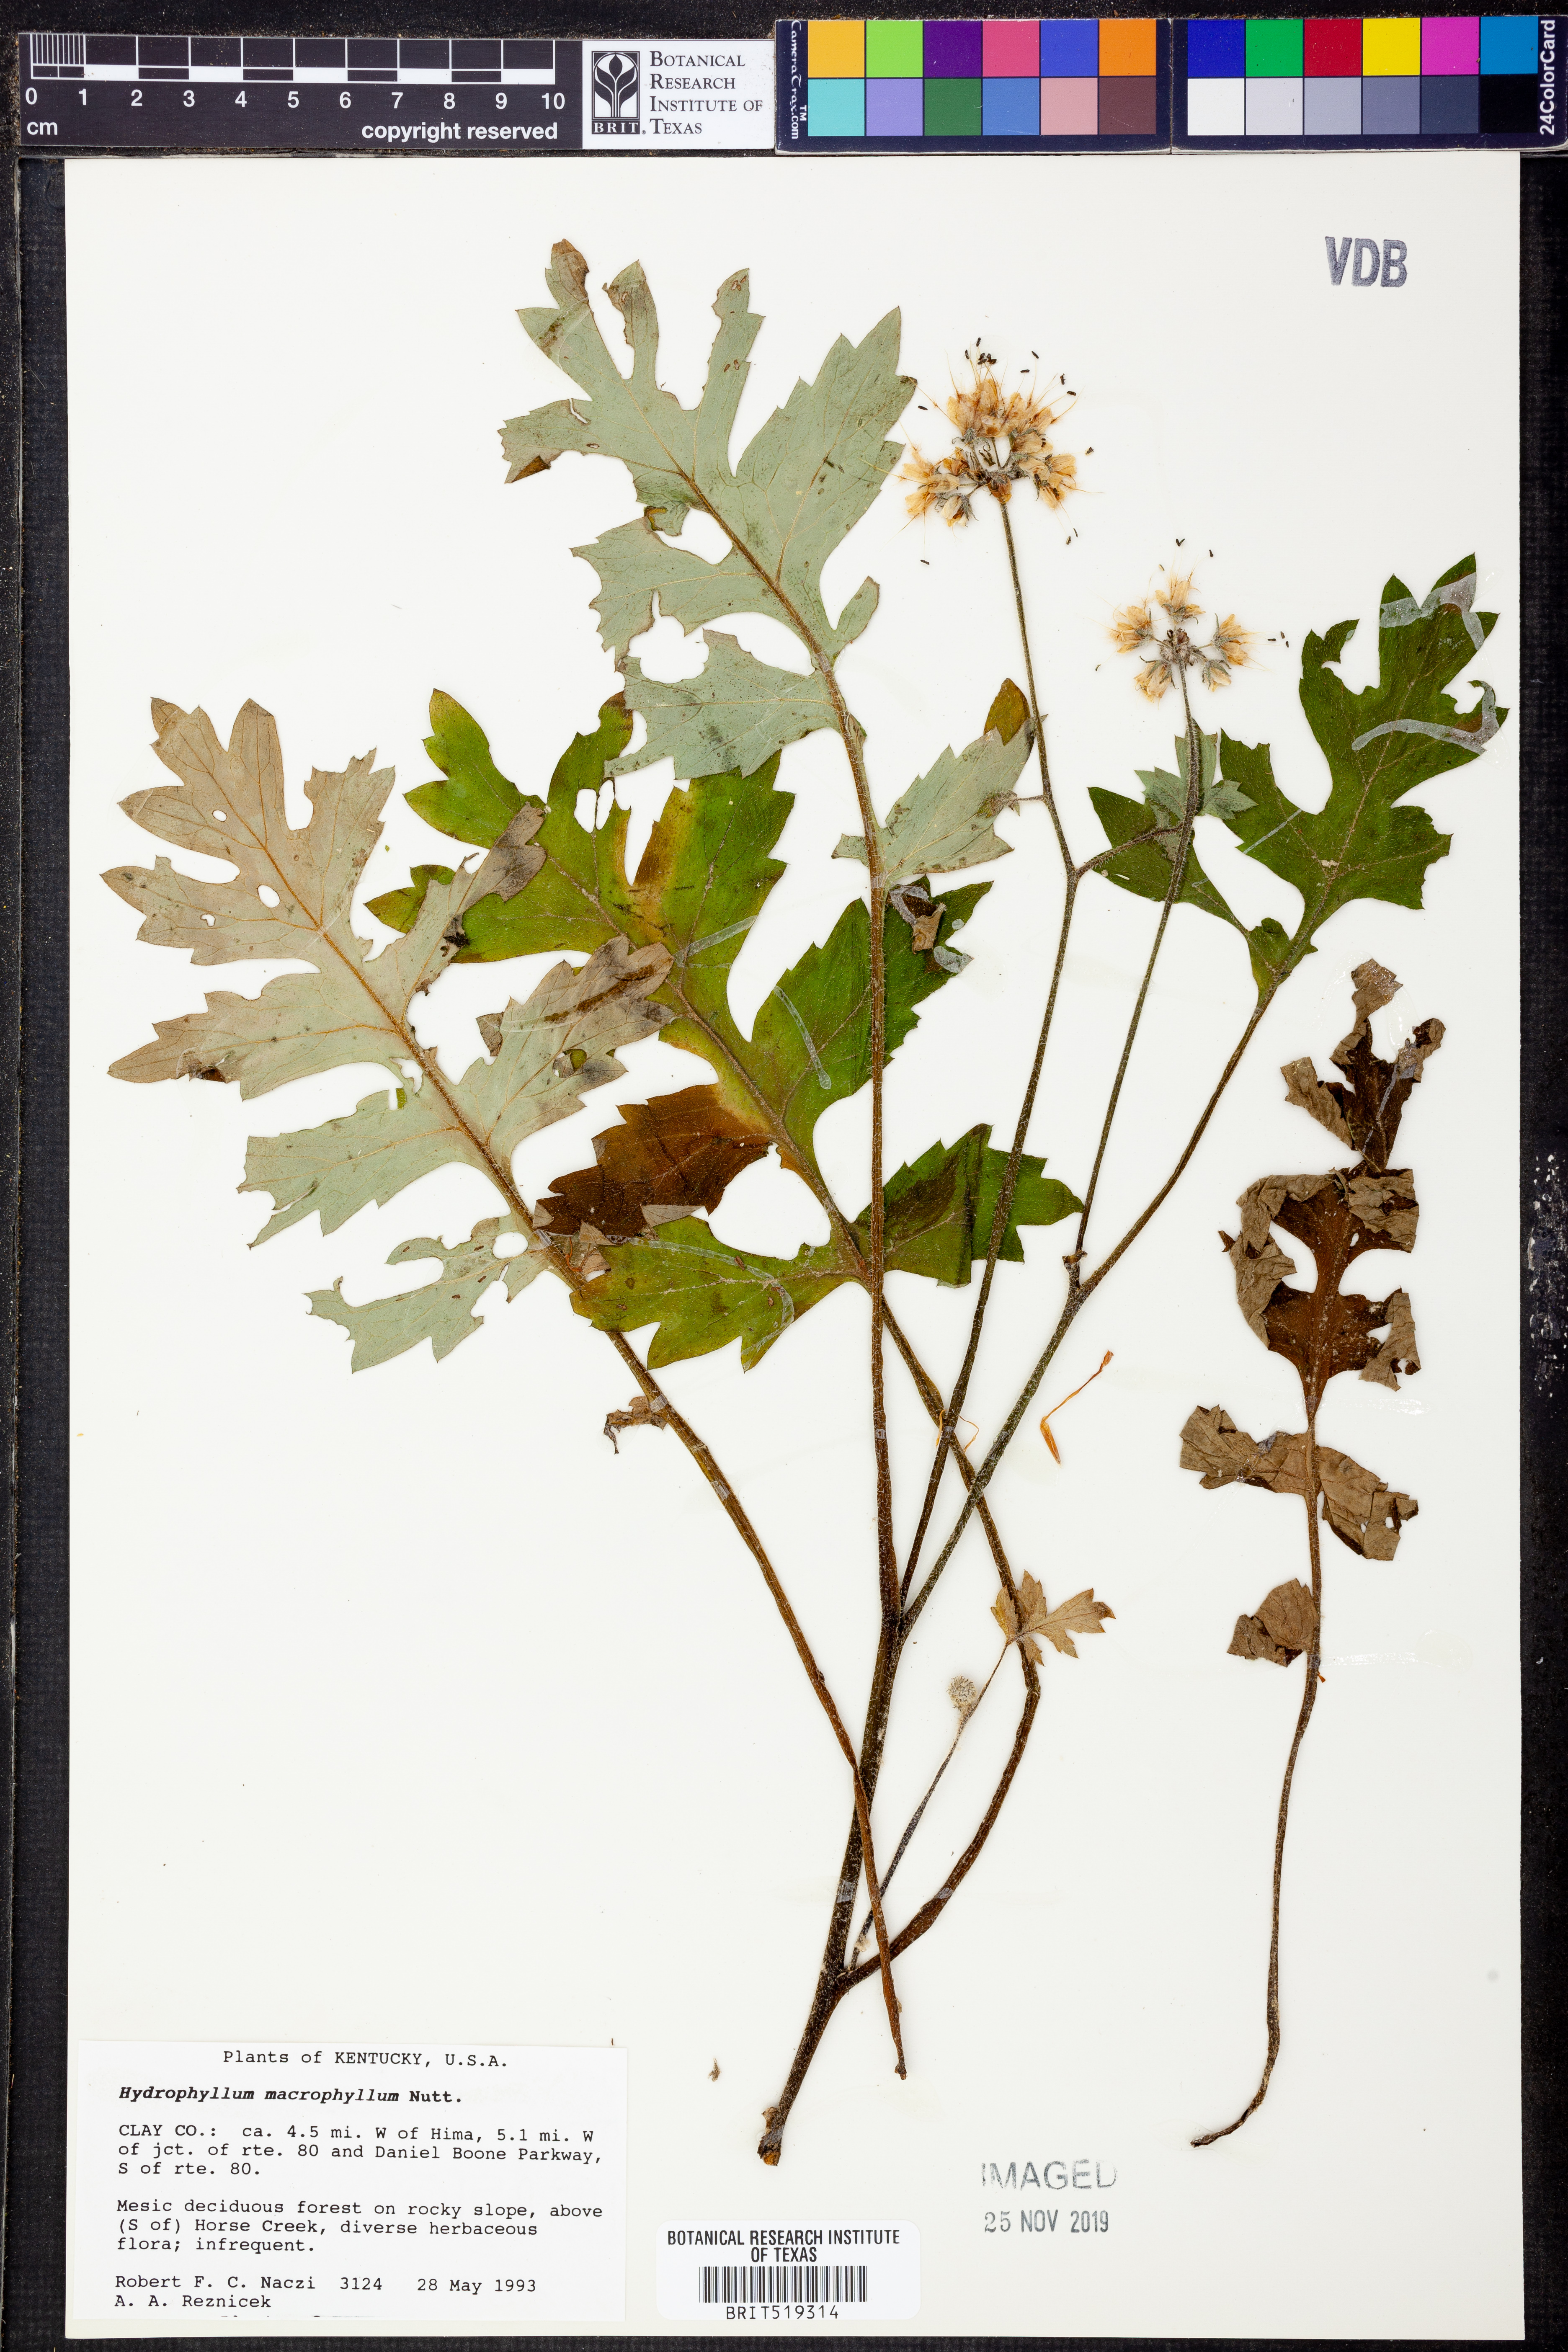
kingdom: Plantae
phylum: Tracheophyta
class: Magnoliopsida
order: Boraginales
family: Hydrophyllaceae
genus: Hydrophyllum
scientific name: Hydrophyllum macrophyllum
